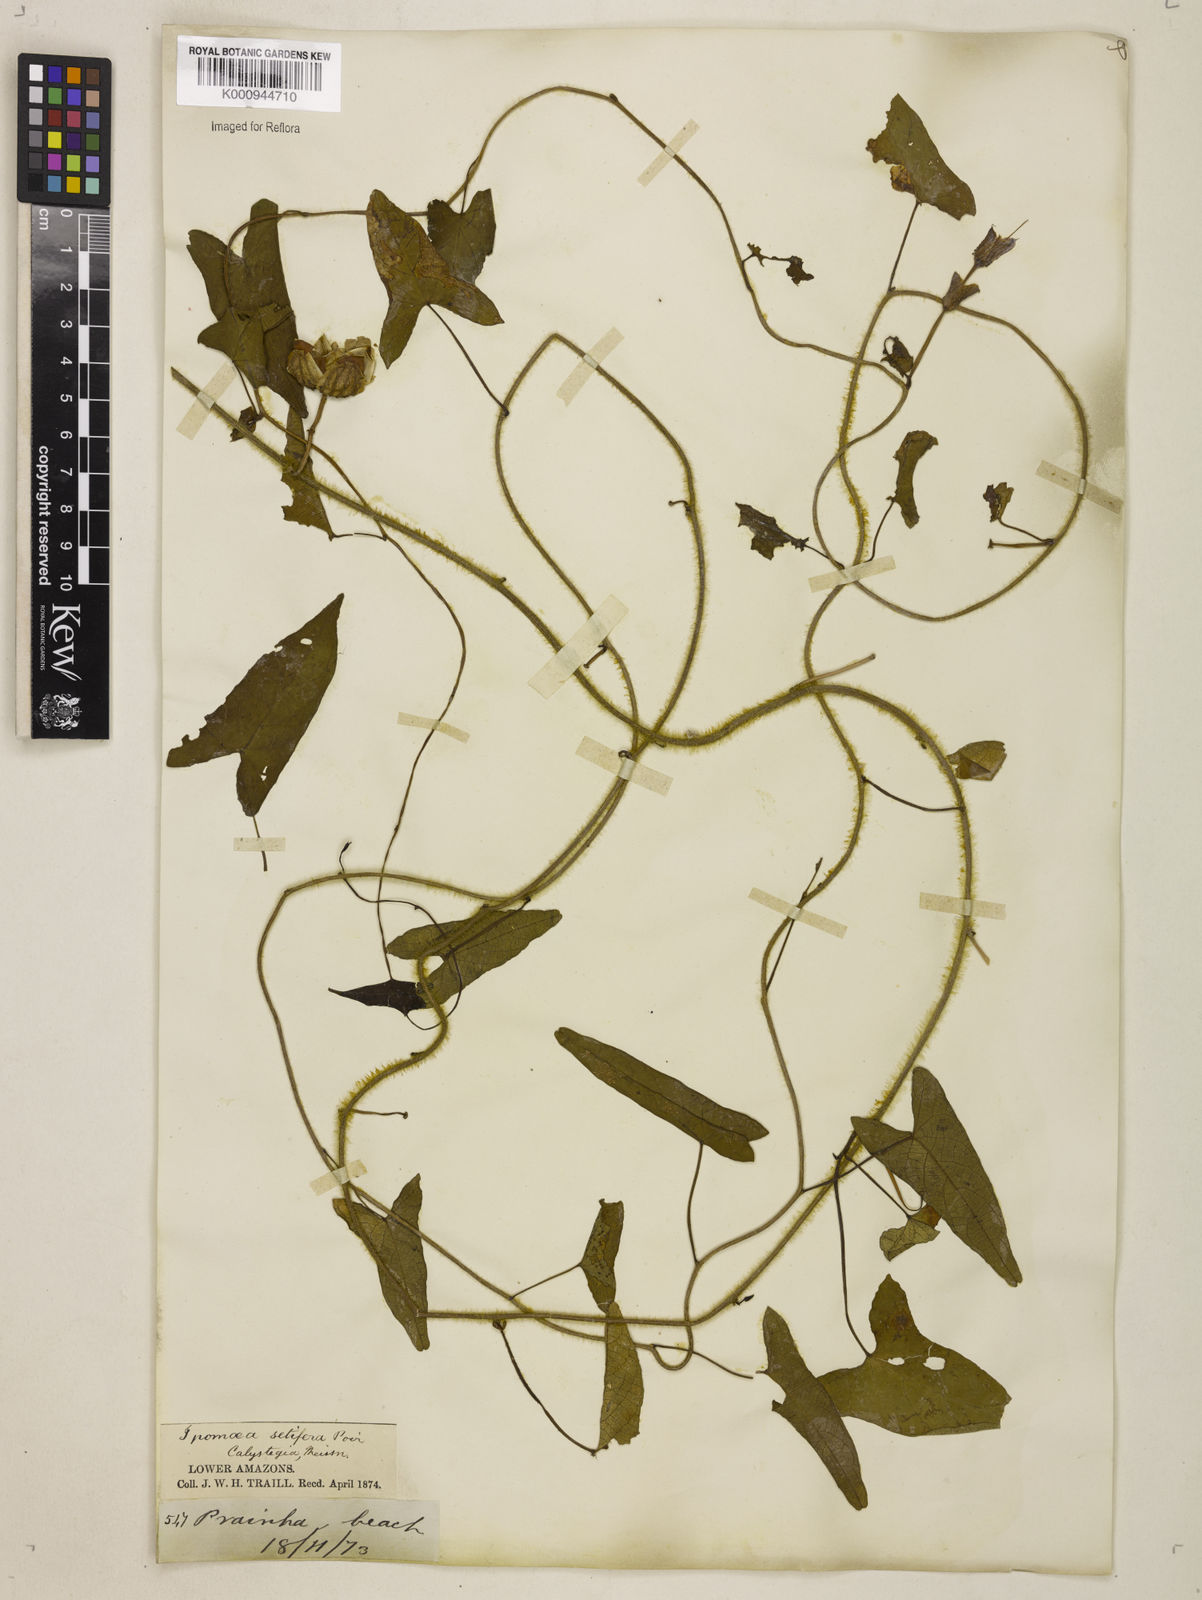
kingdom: Plantae
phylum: Tracheophyta
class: Magnoliopsida
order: Solanales
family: Convolvulaceae
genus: Ipomoea
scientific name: Ipomoea setifera
